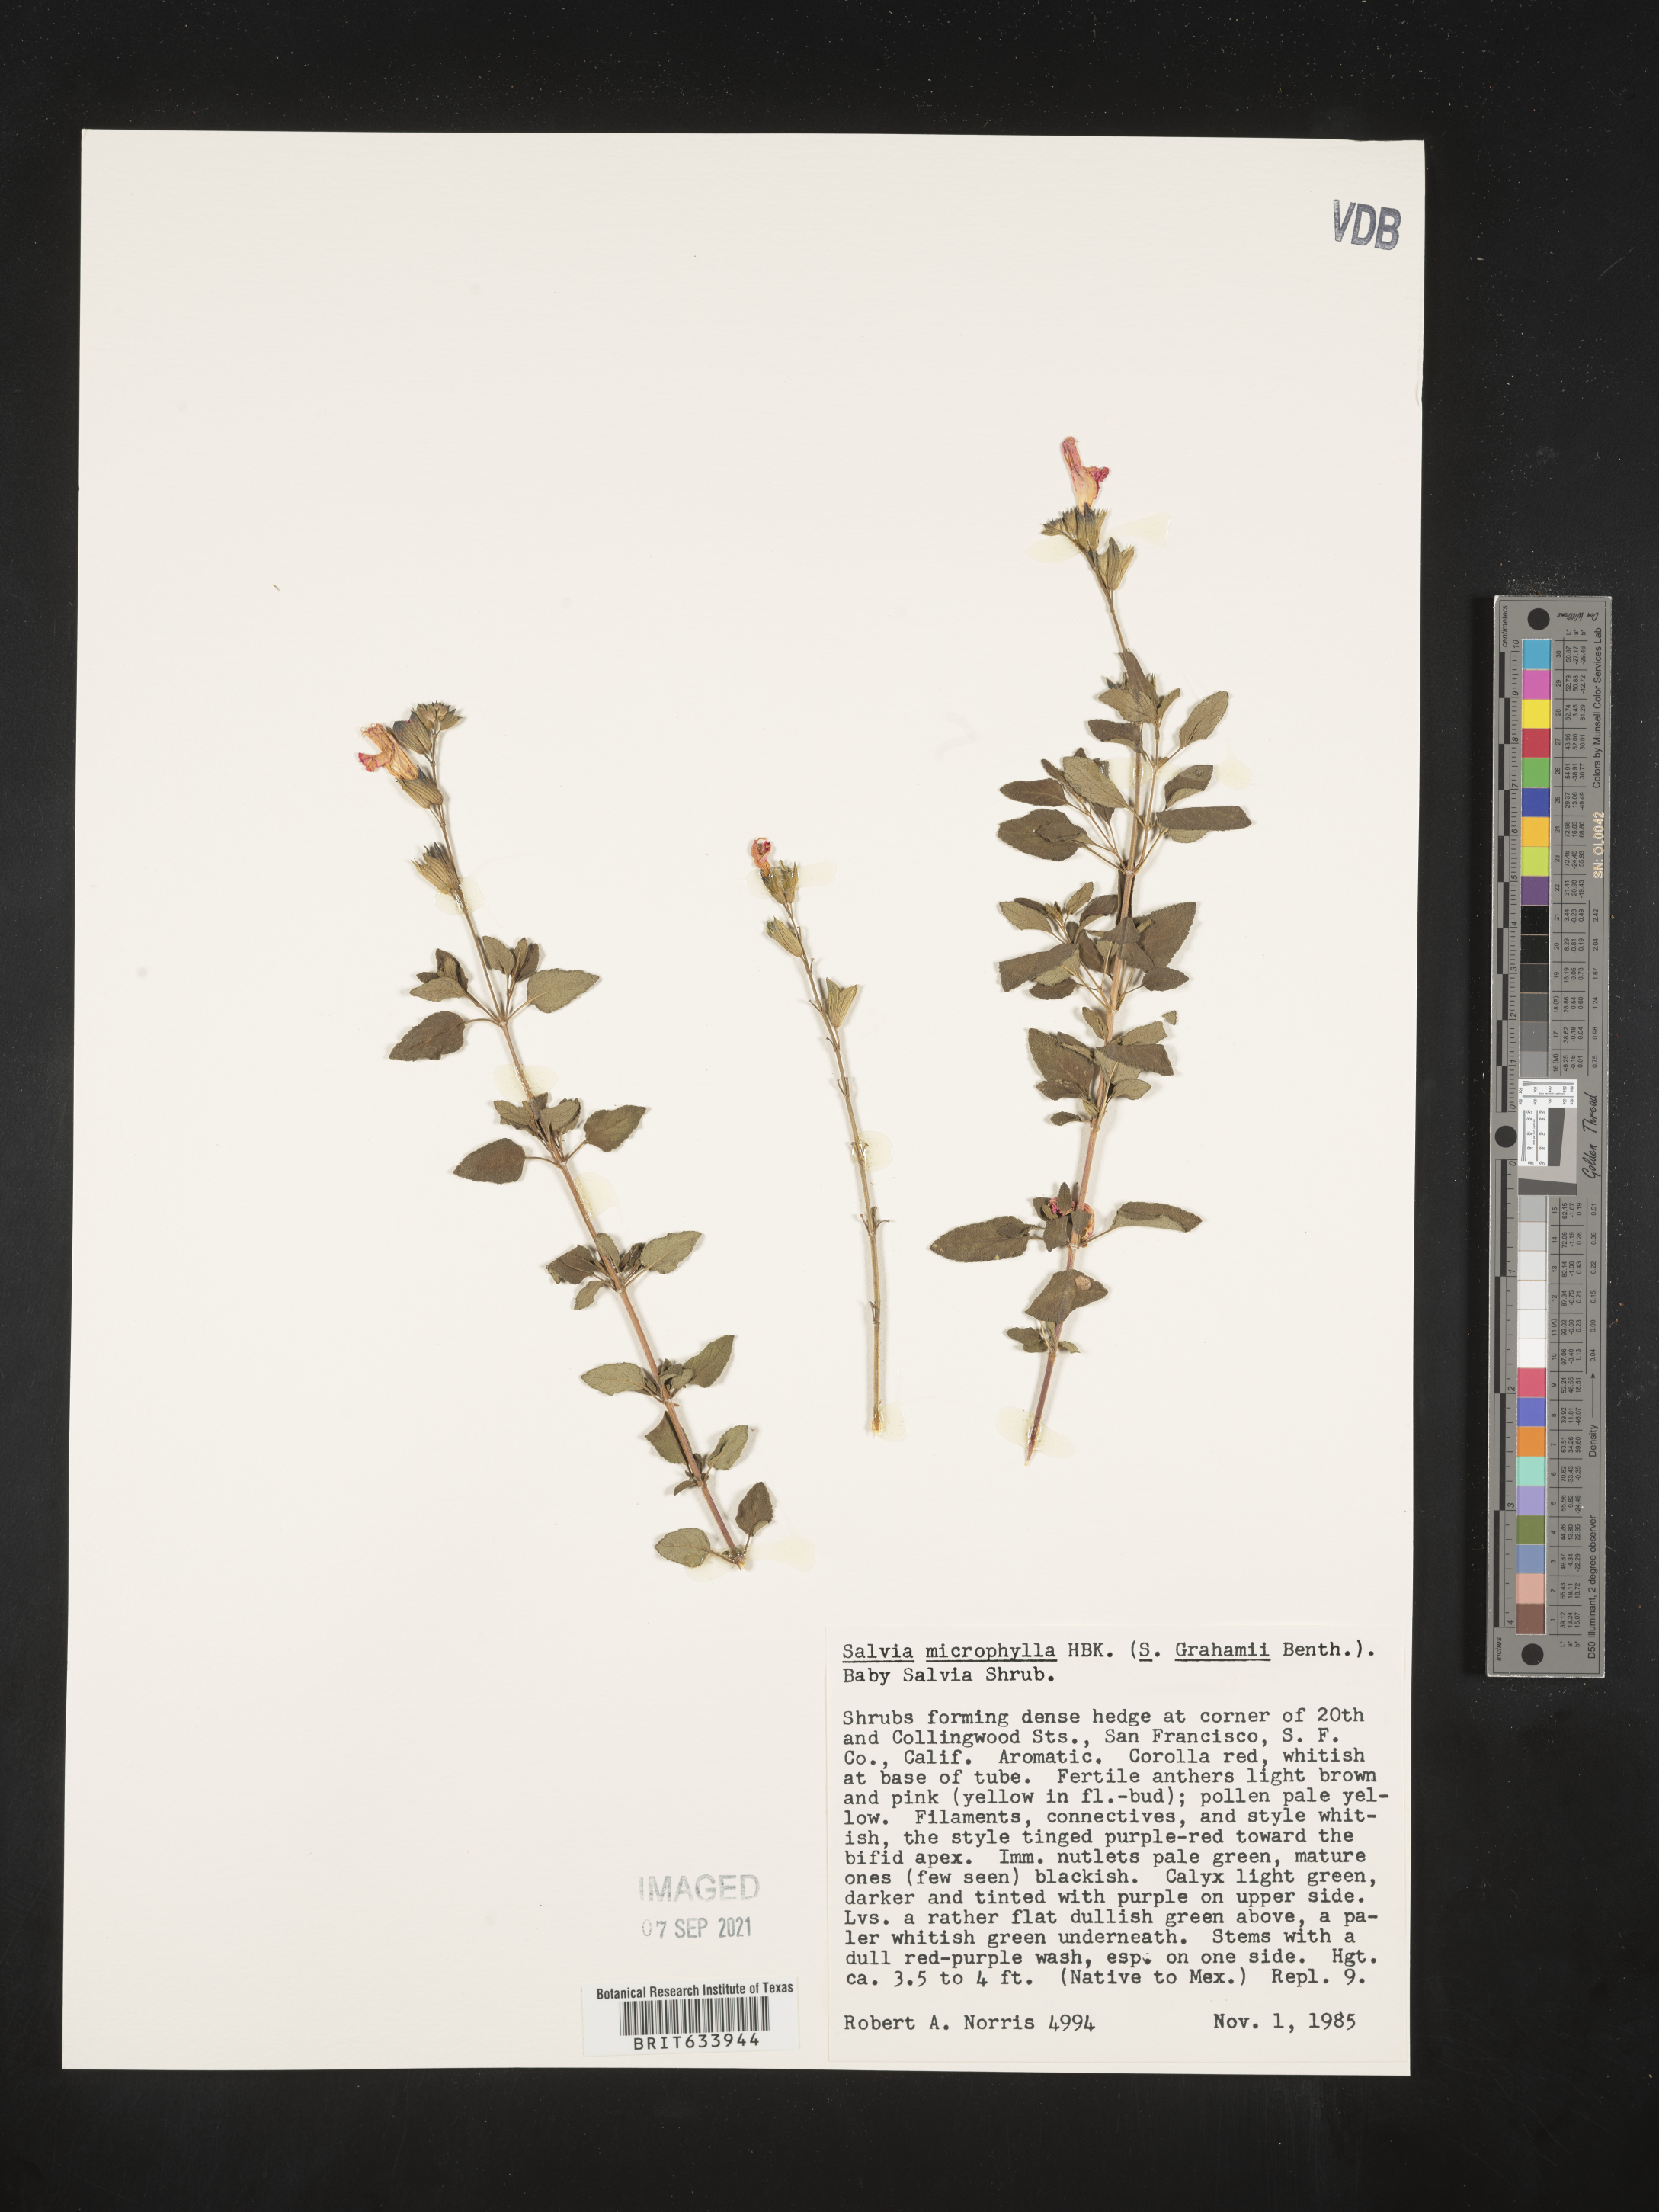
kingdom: Plantae
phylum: Tracheophyta
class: Magnoliopsida
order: Lamiales
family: Lamiaceae
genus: Salvia
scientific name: Salvia
